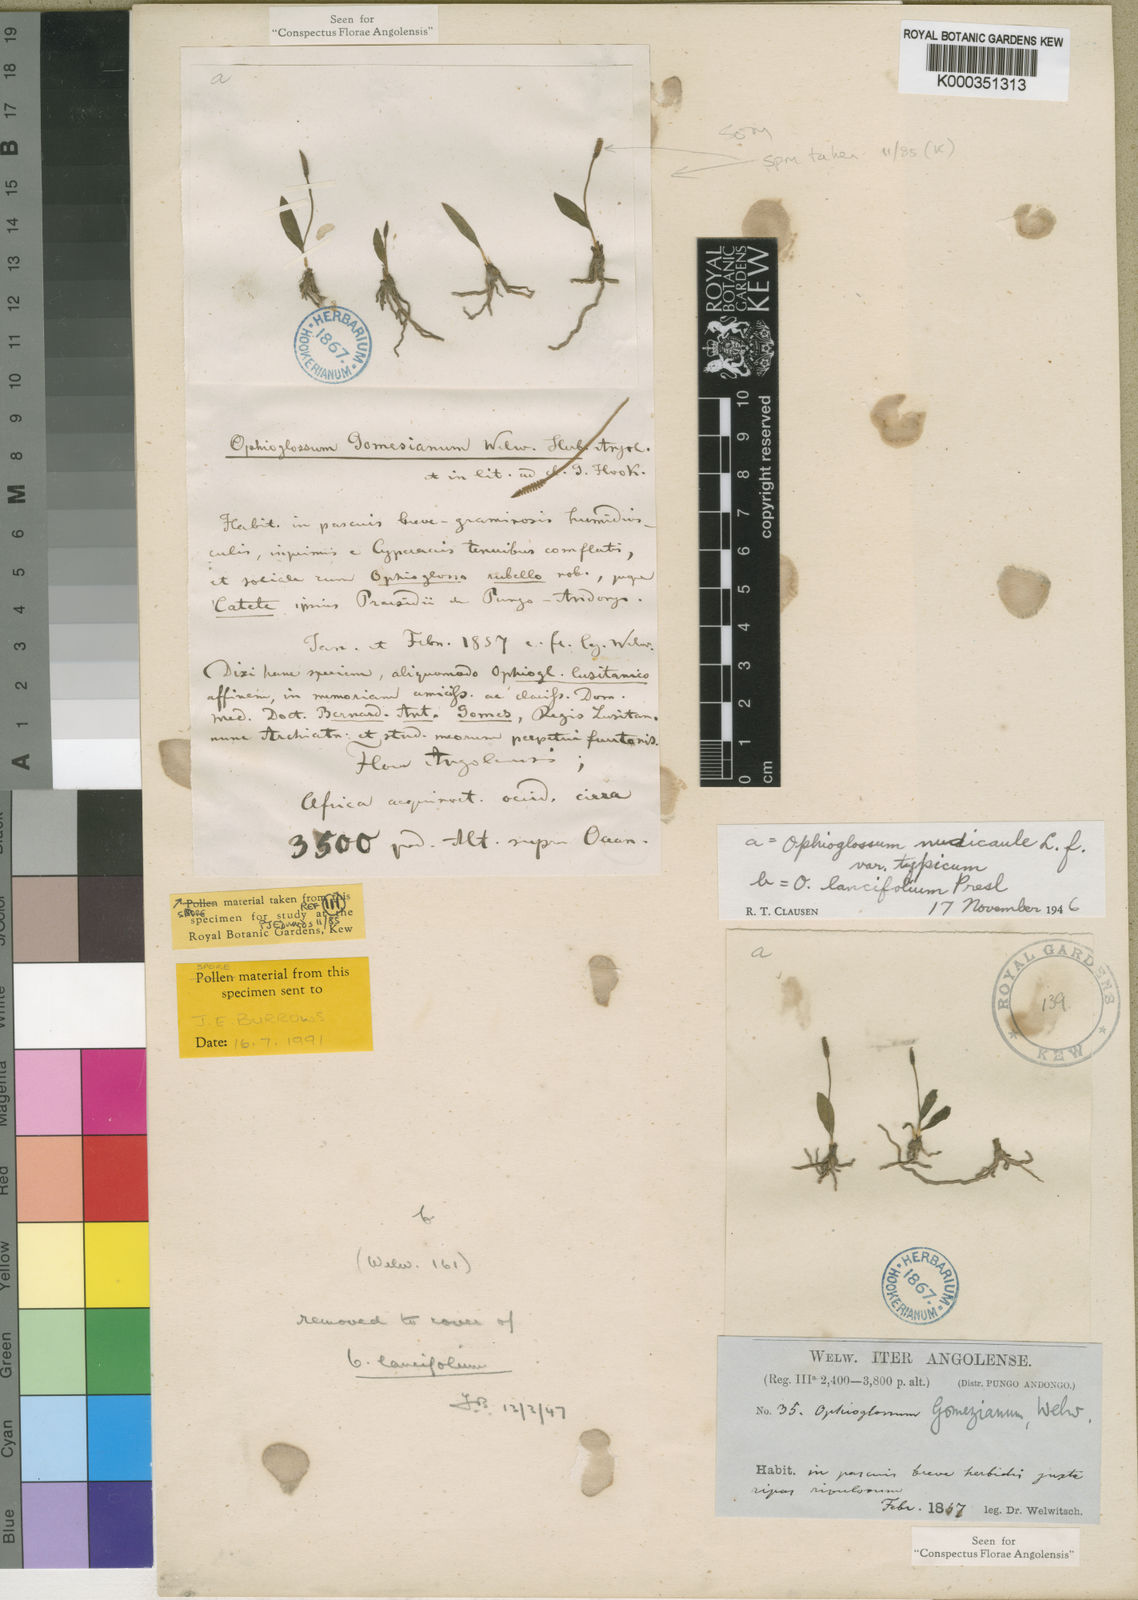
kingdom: Plantae
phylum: Tracheophyta
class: Polypodiopsida
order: Ophioglossales
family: Ophioglossaceae
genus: Ophioglossum
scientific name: Ophioglossum gomezianum
